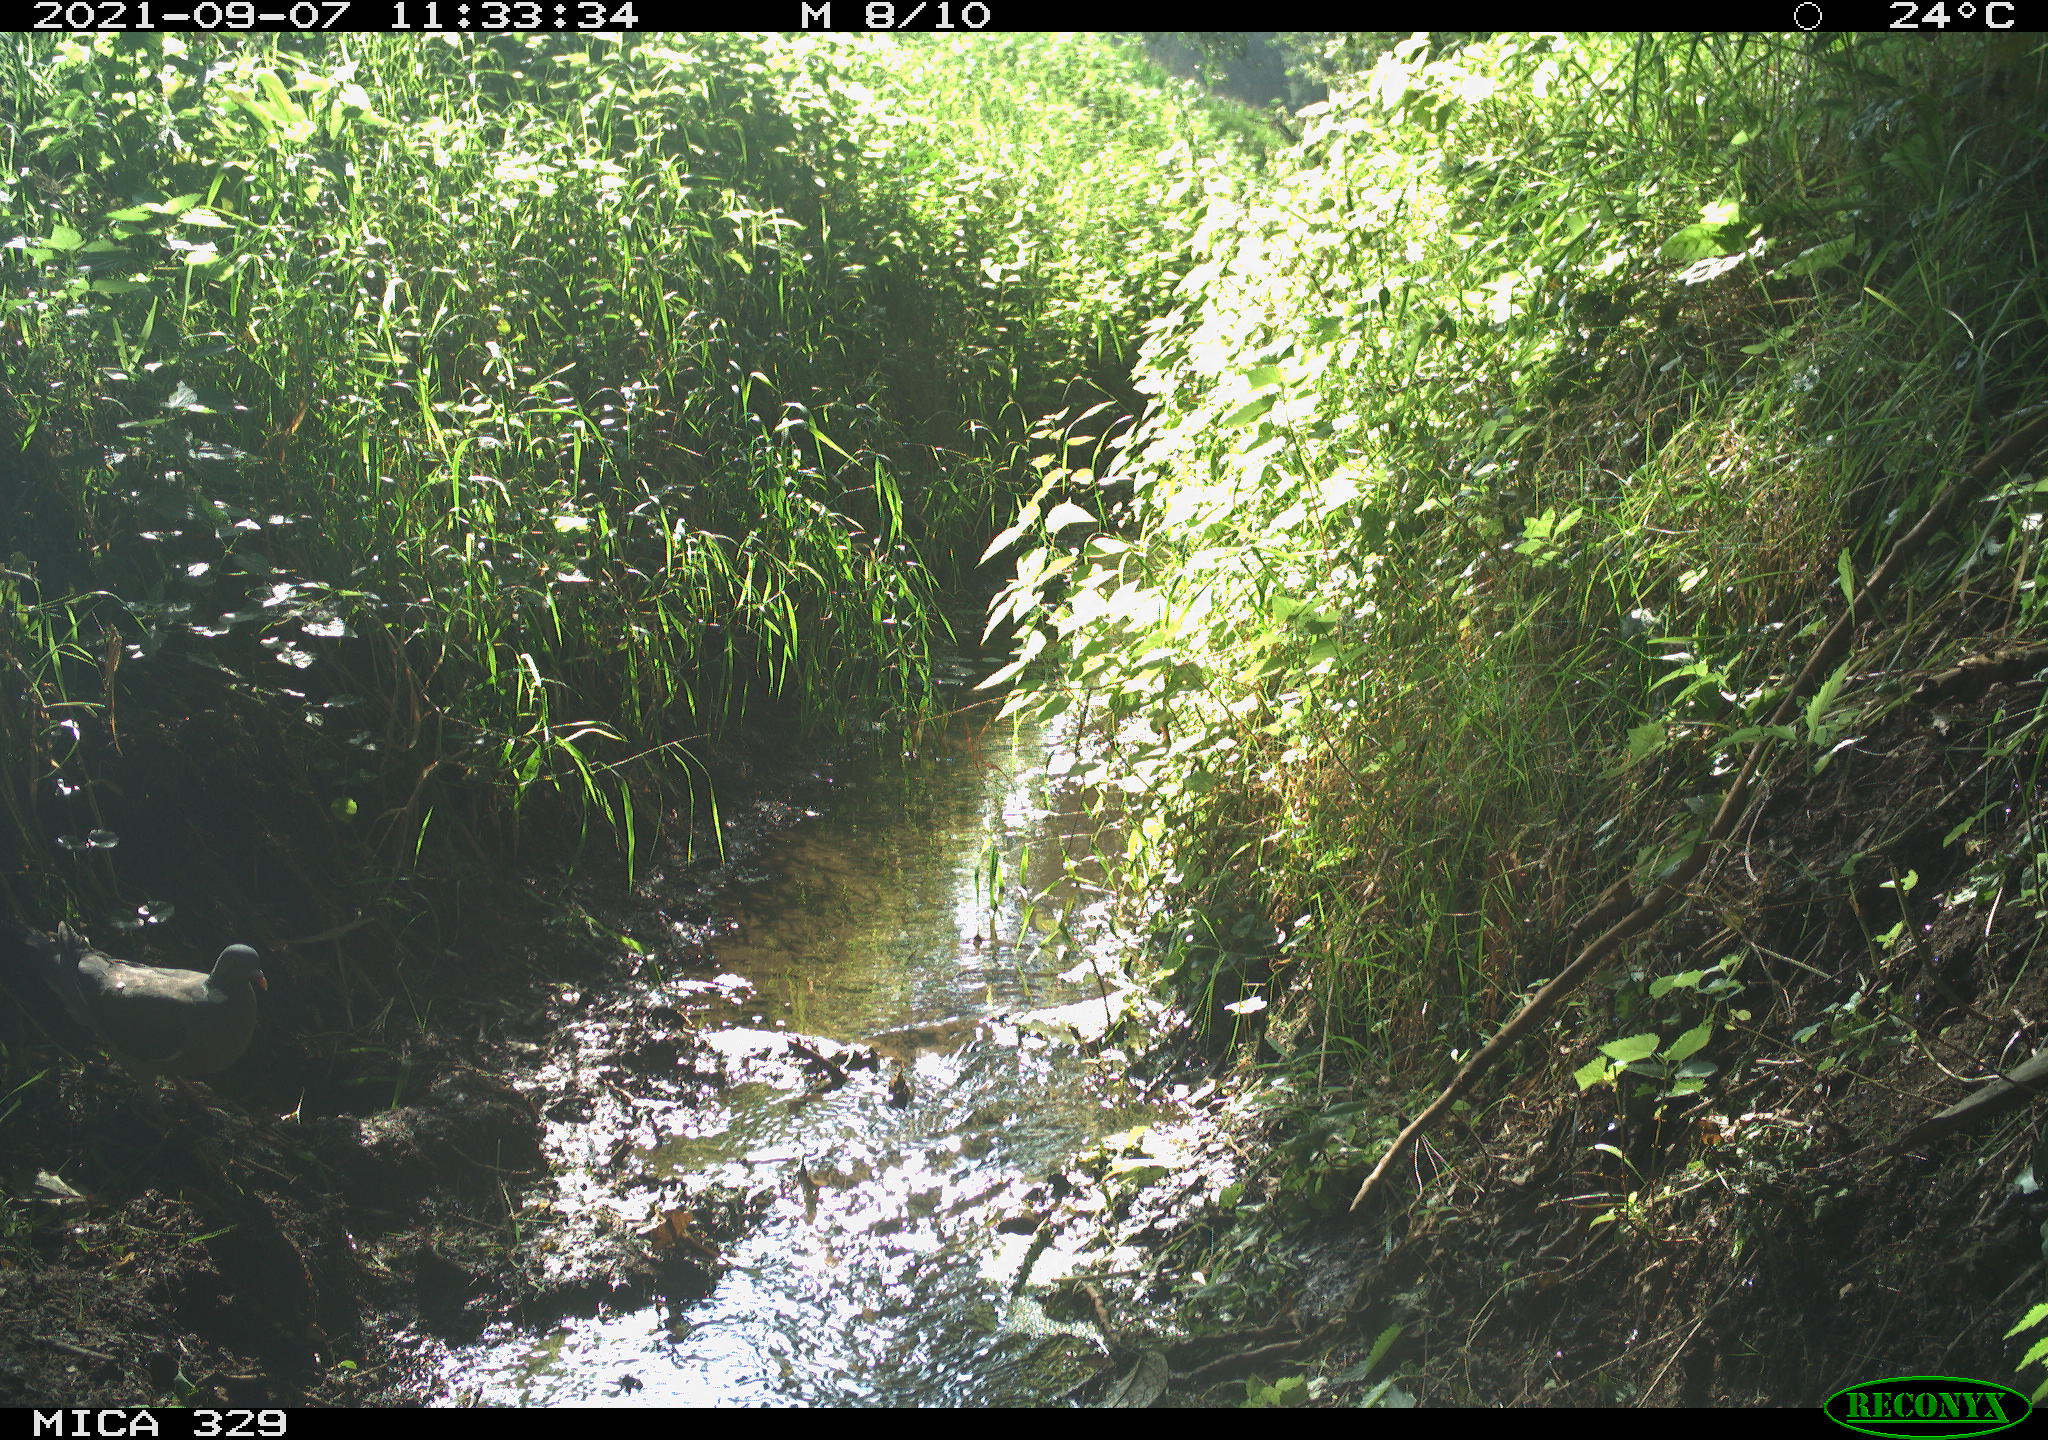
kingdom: Animalia
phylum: Chordata
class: Aves
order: Columbiformes
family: Columbidae
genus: Columba
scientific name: Columba palumbus
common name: Common wood pigeon
